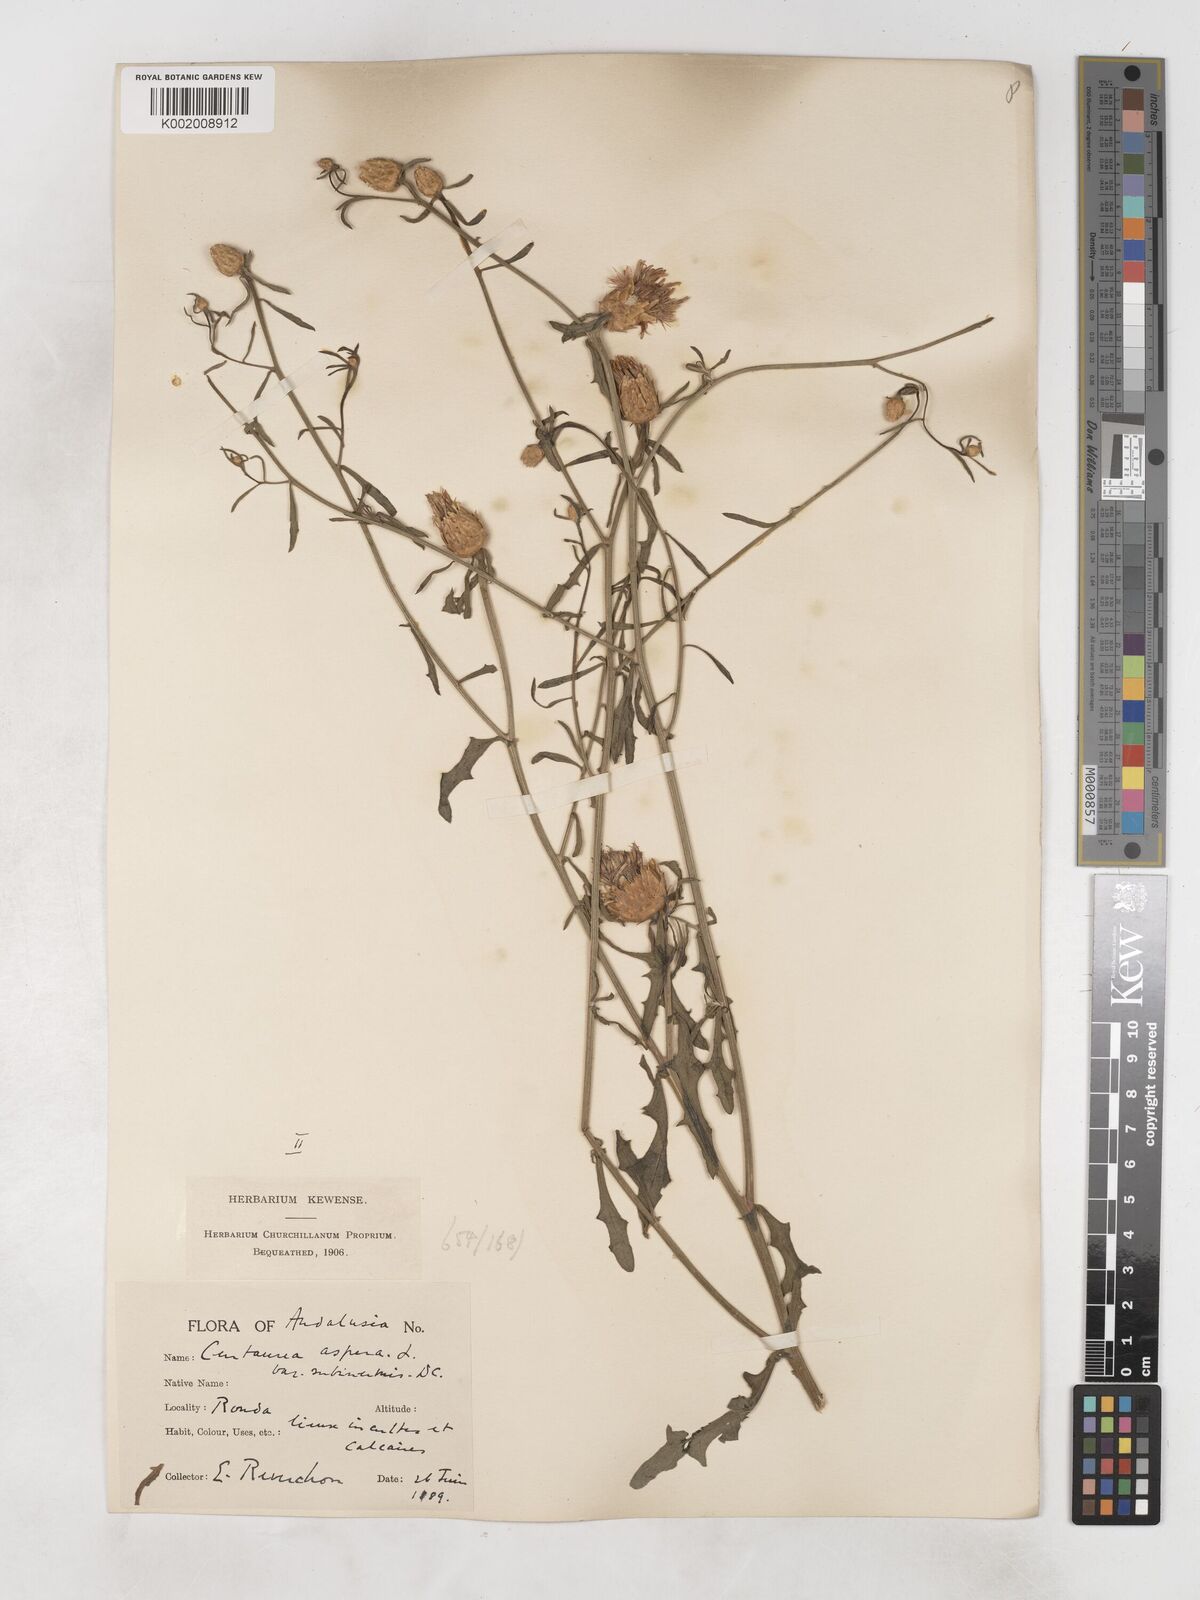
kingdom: Plantae
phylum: Tracheophyta
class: Magnoliopsida
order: Asterales
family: Asteraceae
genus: Centaurea
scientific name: Centaurea aspera
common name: Rough star-thistle
